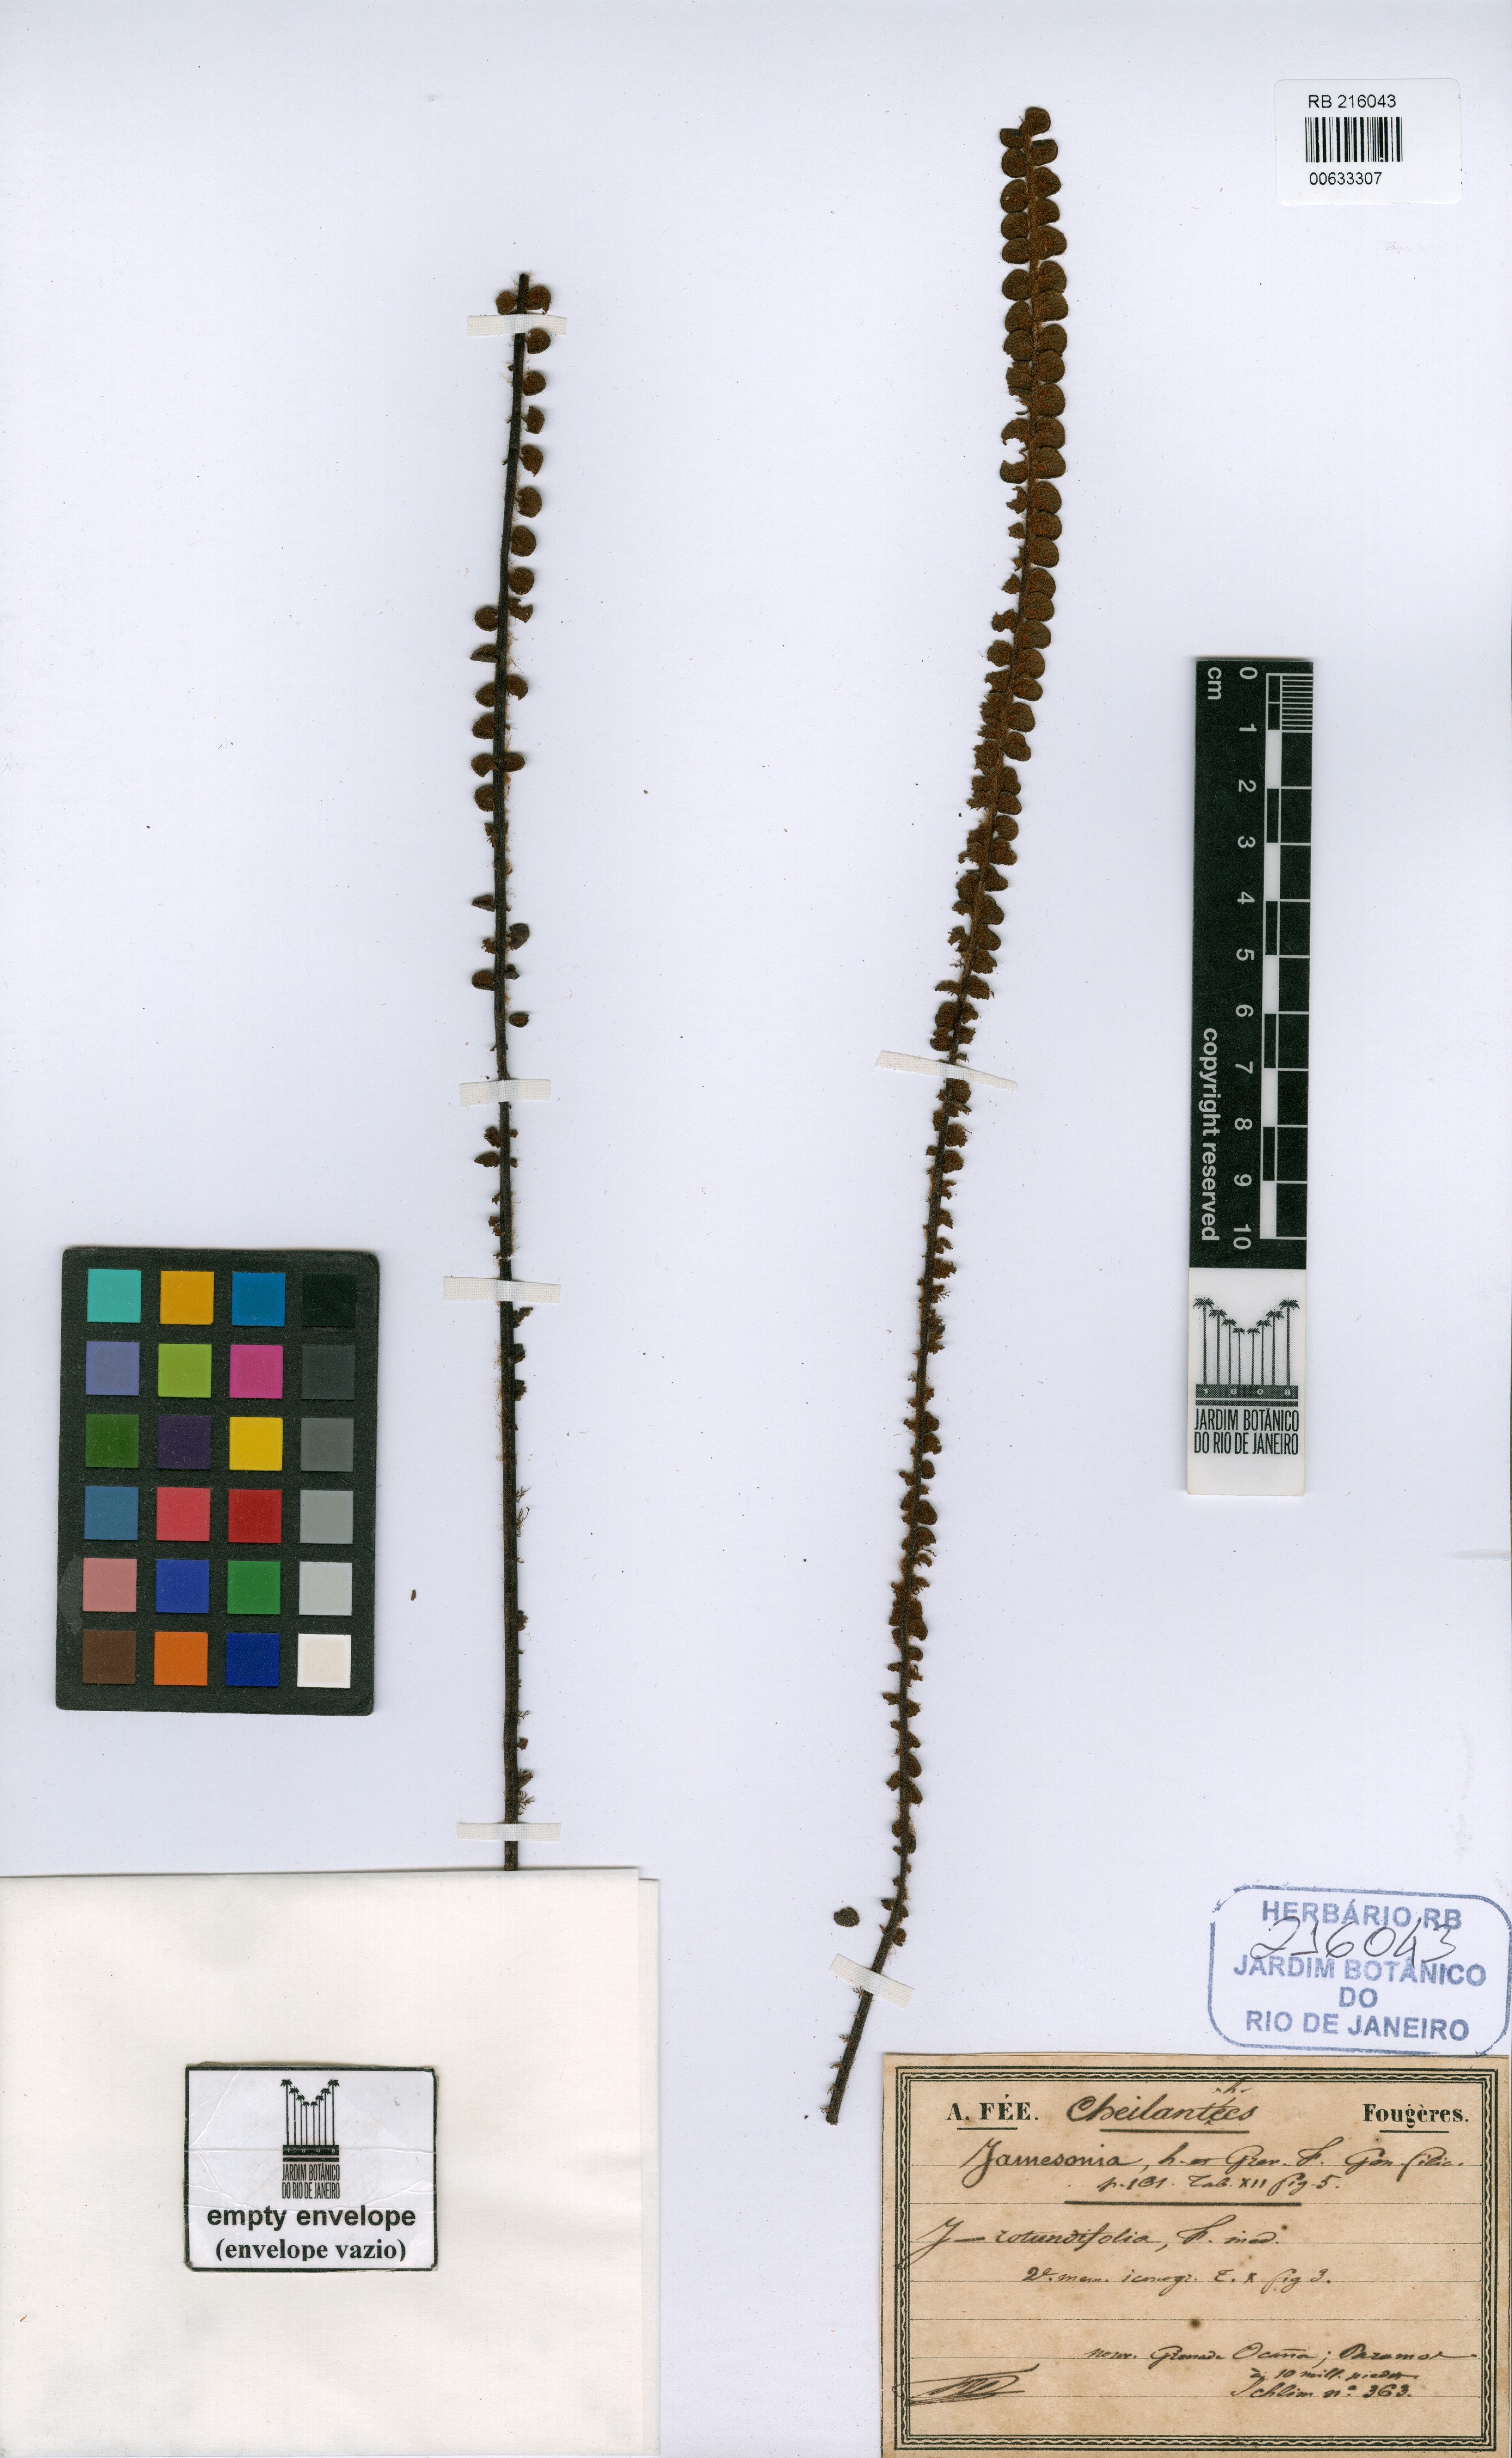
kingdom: Plantae
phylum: Tracheophyta
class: Polypodiopsida
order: Polypodiales
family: Pteridaceae
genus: Jamesonia
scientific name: Jamesonia rotundifolia
